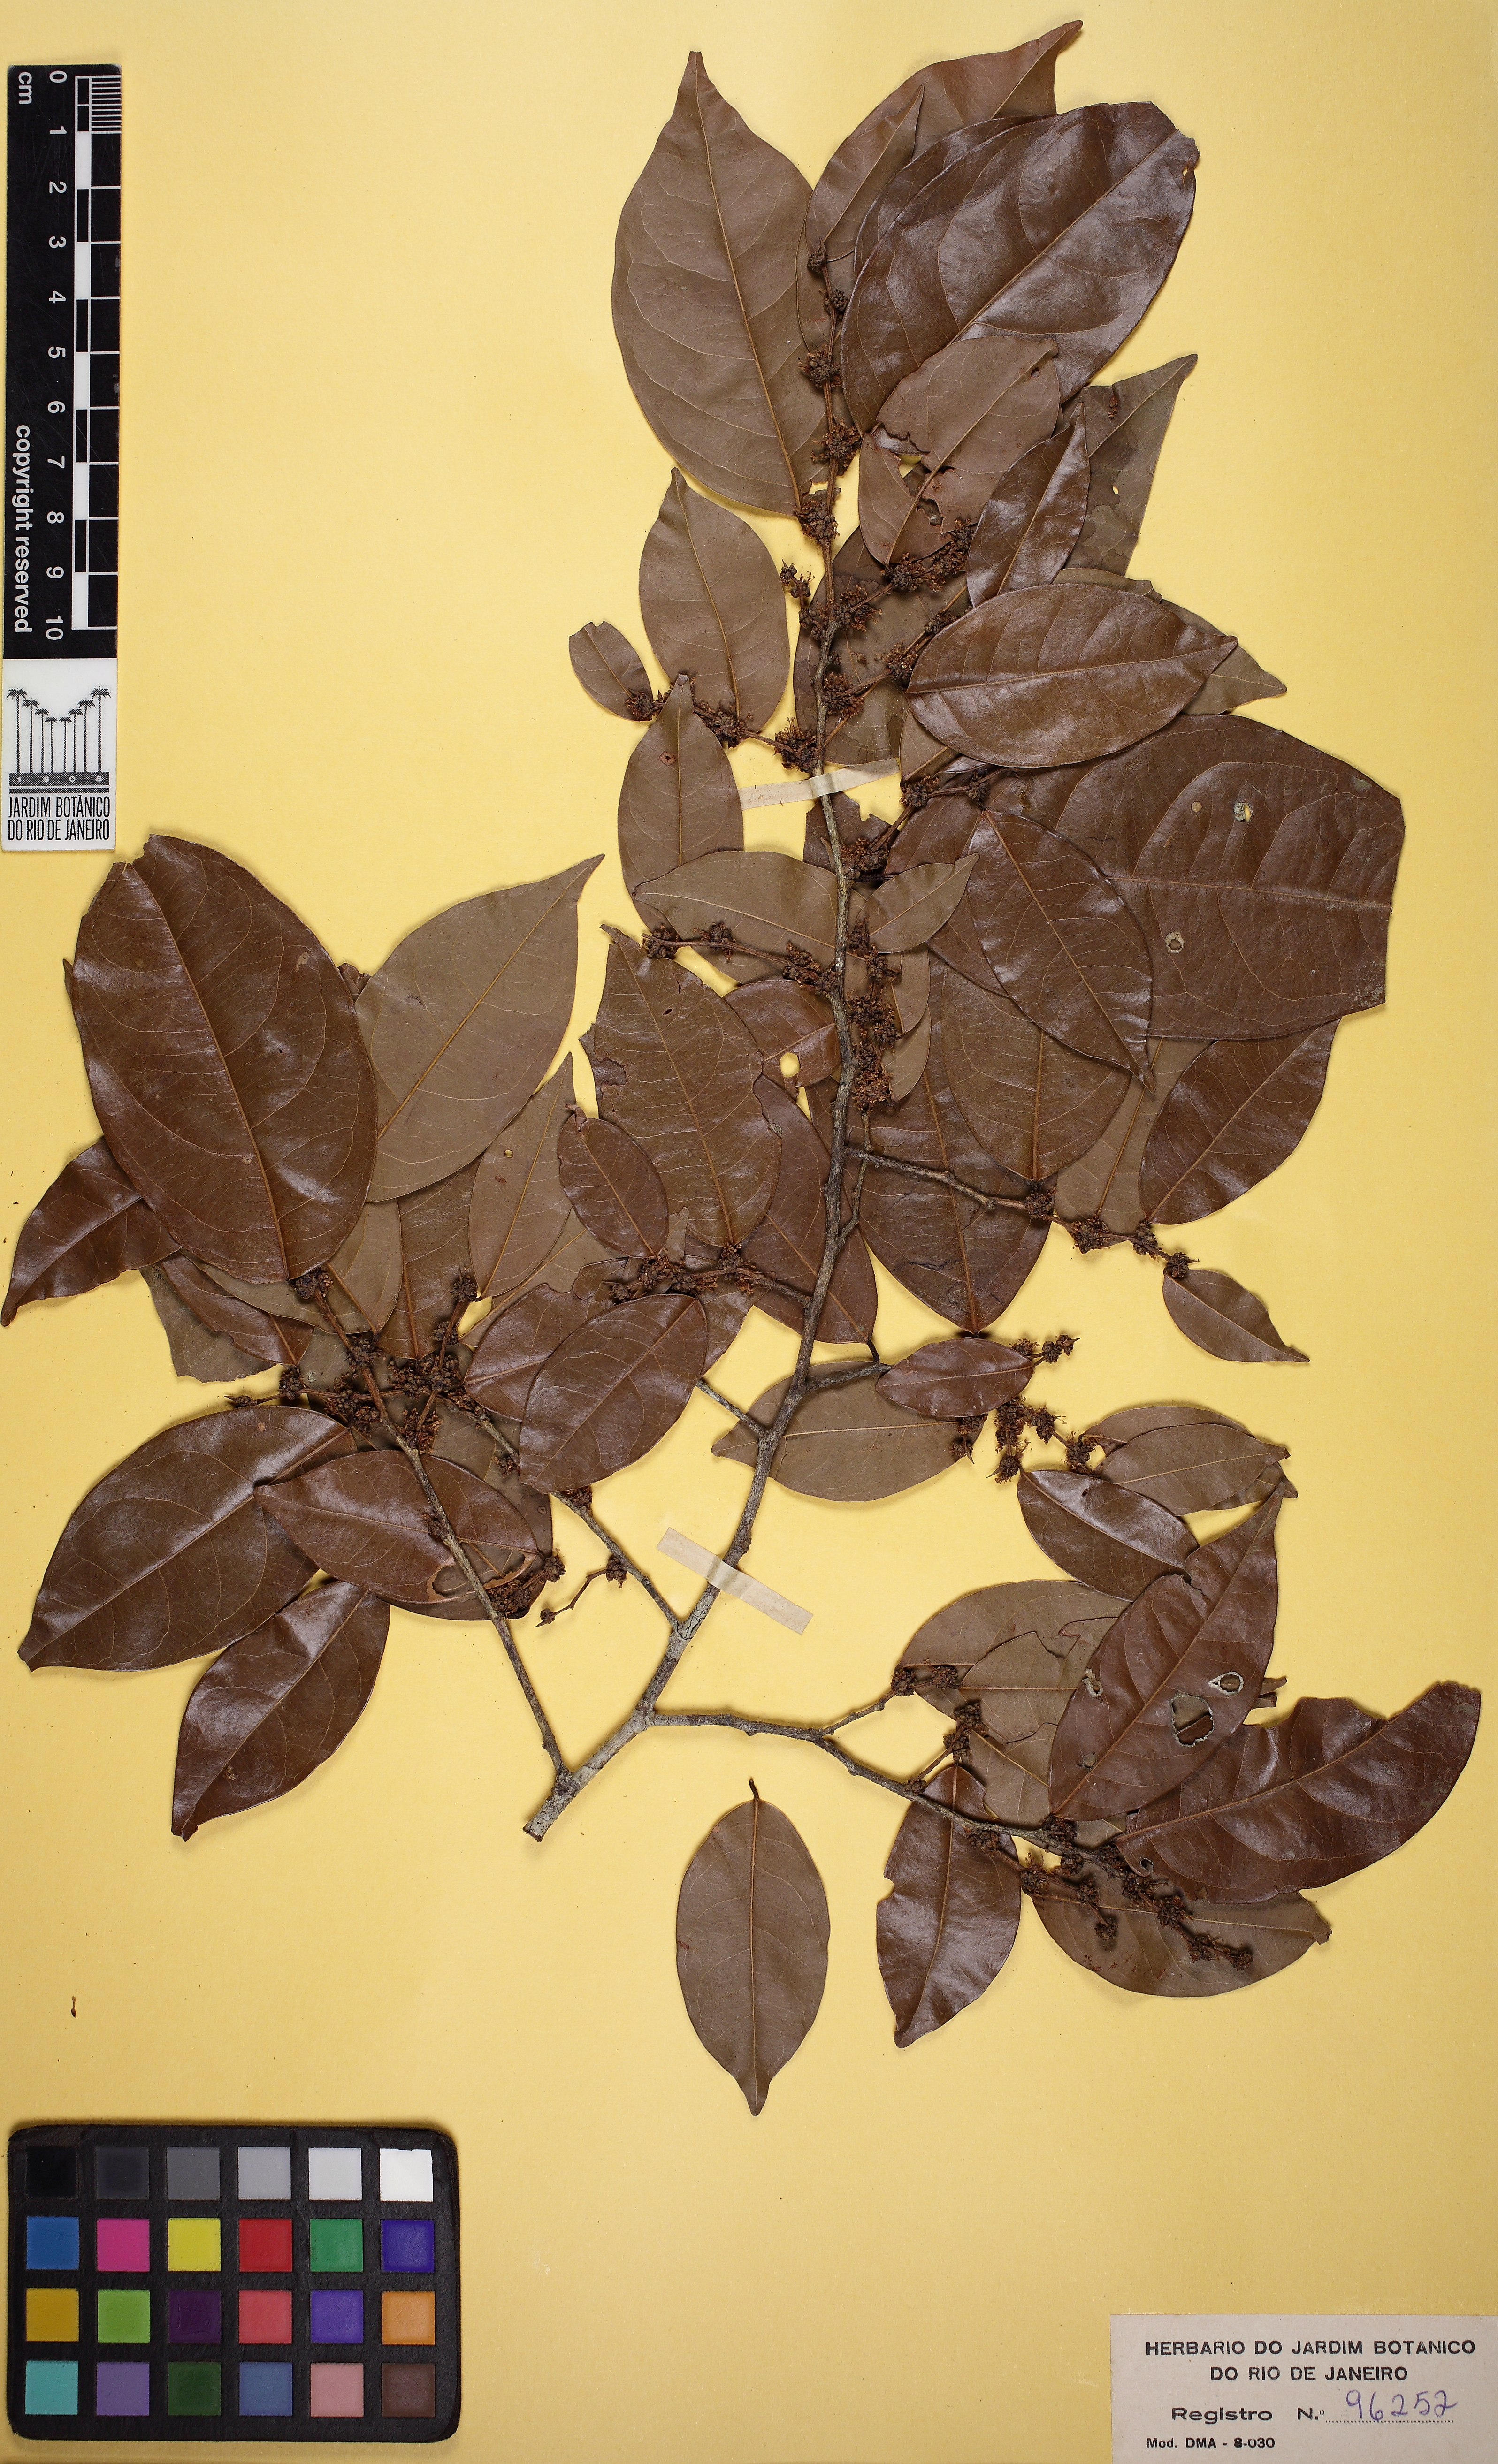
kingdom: Plantae
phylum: Tracheophyta
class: Magnoliopsida
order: Malpighiales
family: Phyllanthaceae
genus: Discocarpus
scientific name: Discocarpus essequeboensis
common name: Sqaure-wood
